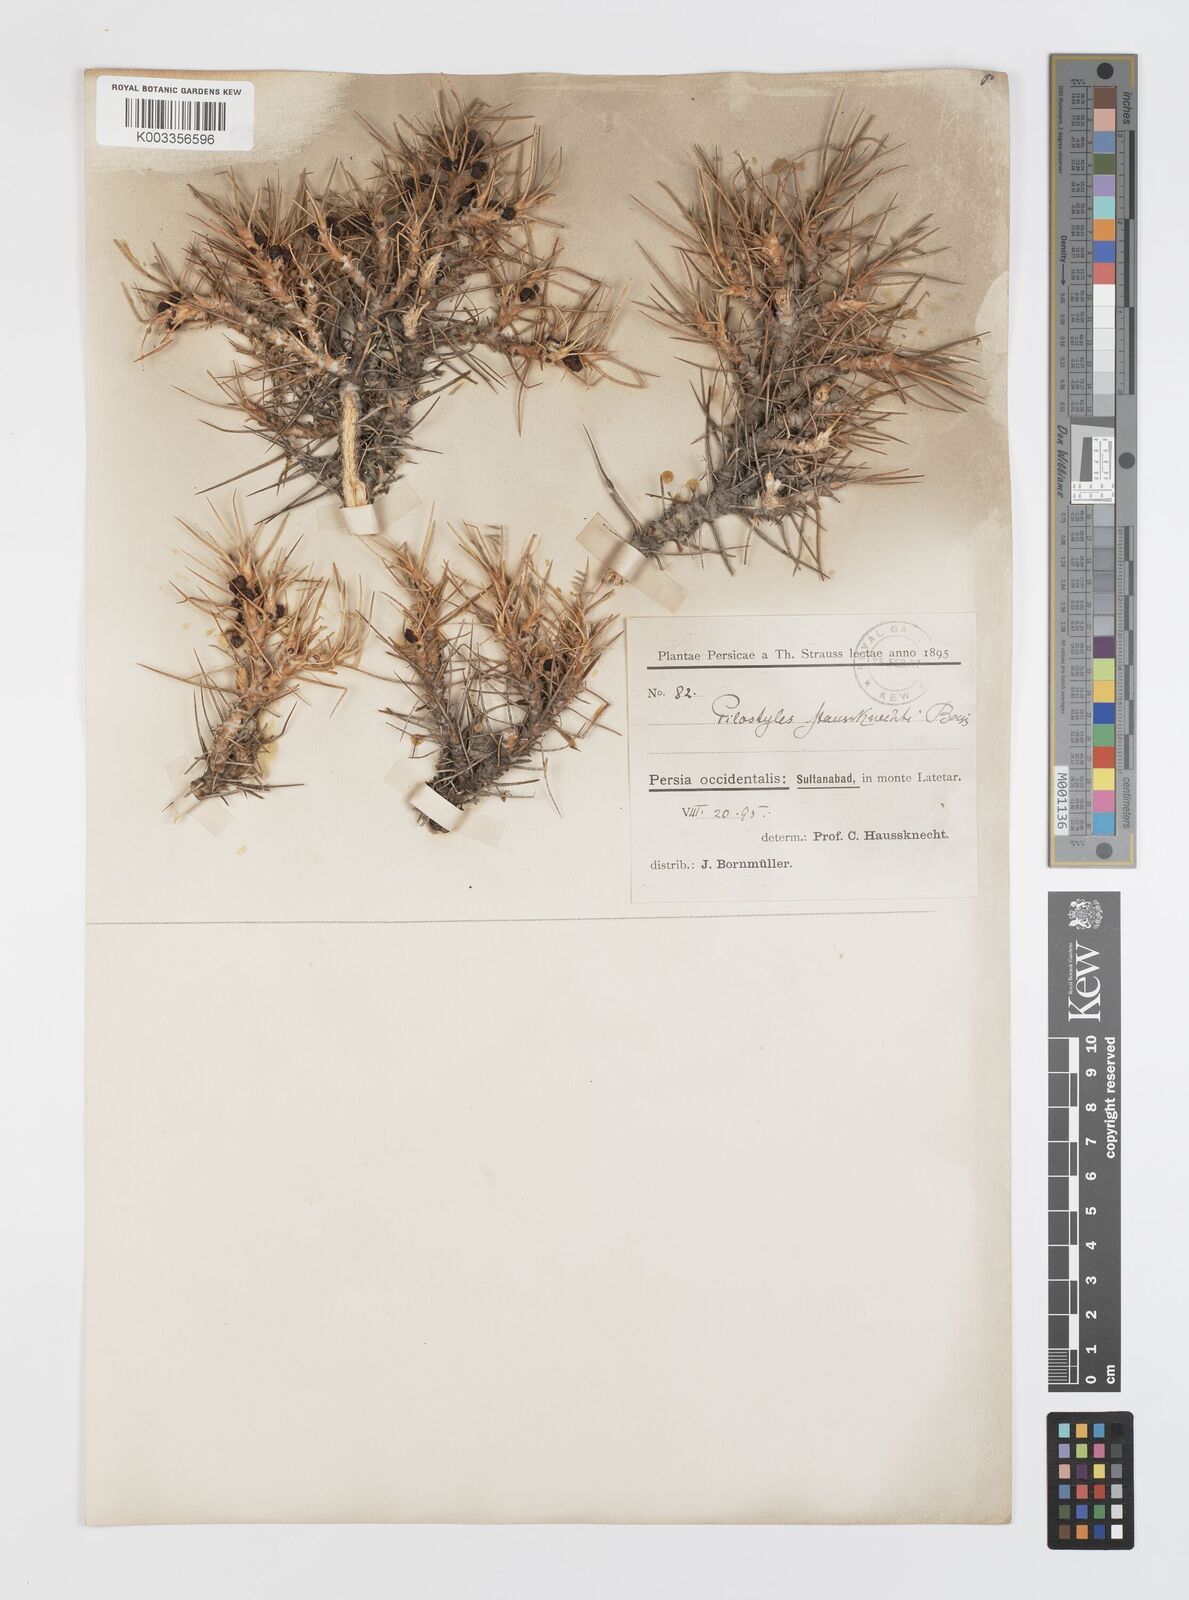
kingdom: Plantae
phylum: Tracheophyta
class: Magnoliopsida
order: Cucurbitales
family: Apodanthaceae
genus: Pilostyles
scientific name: Pilostyles haussknechtii
